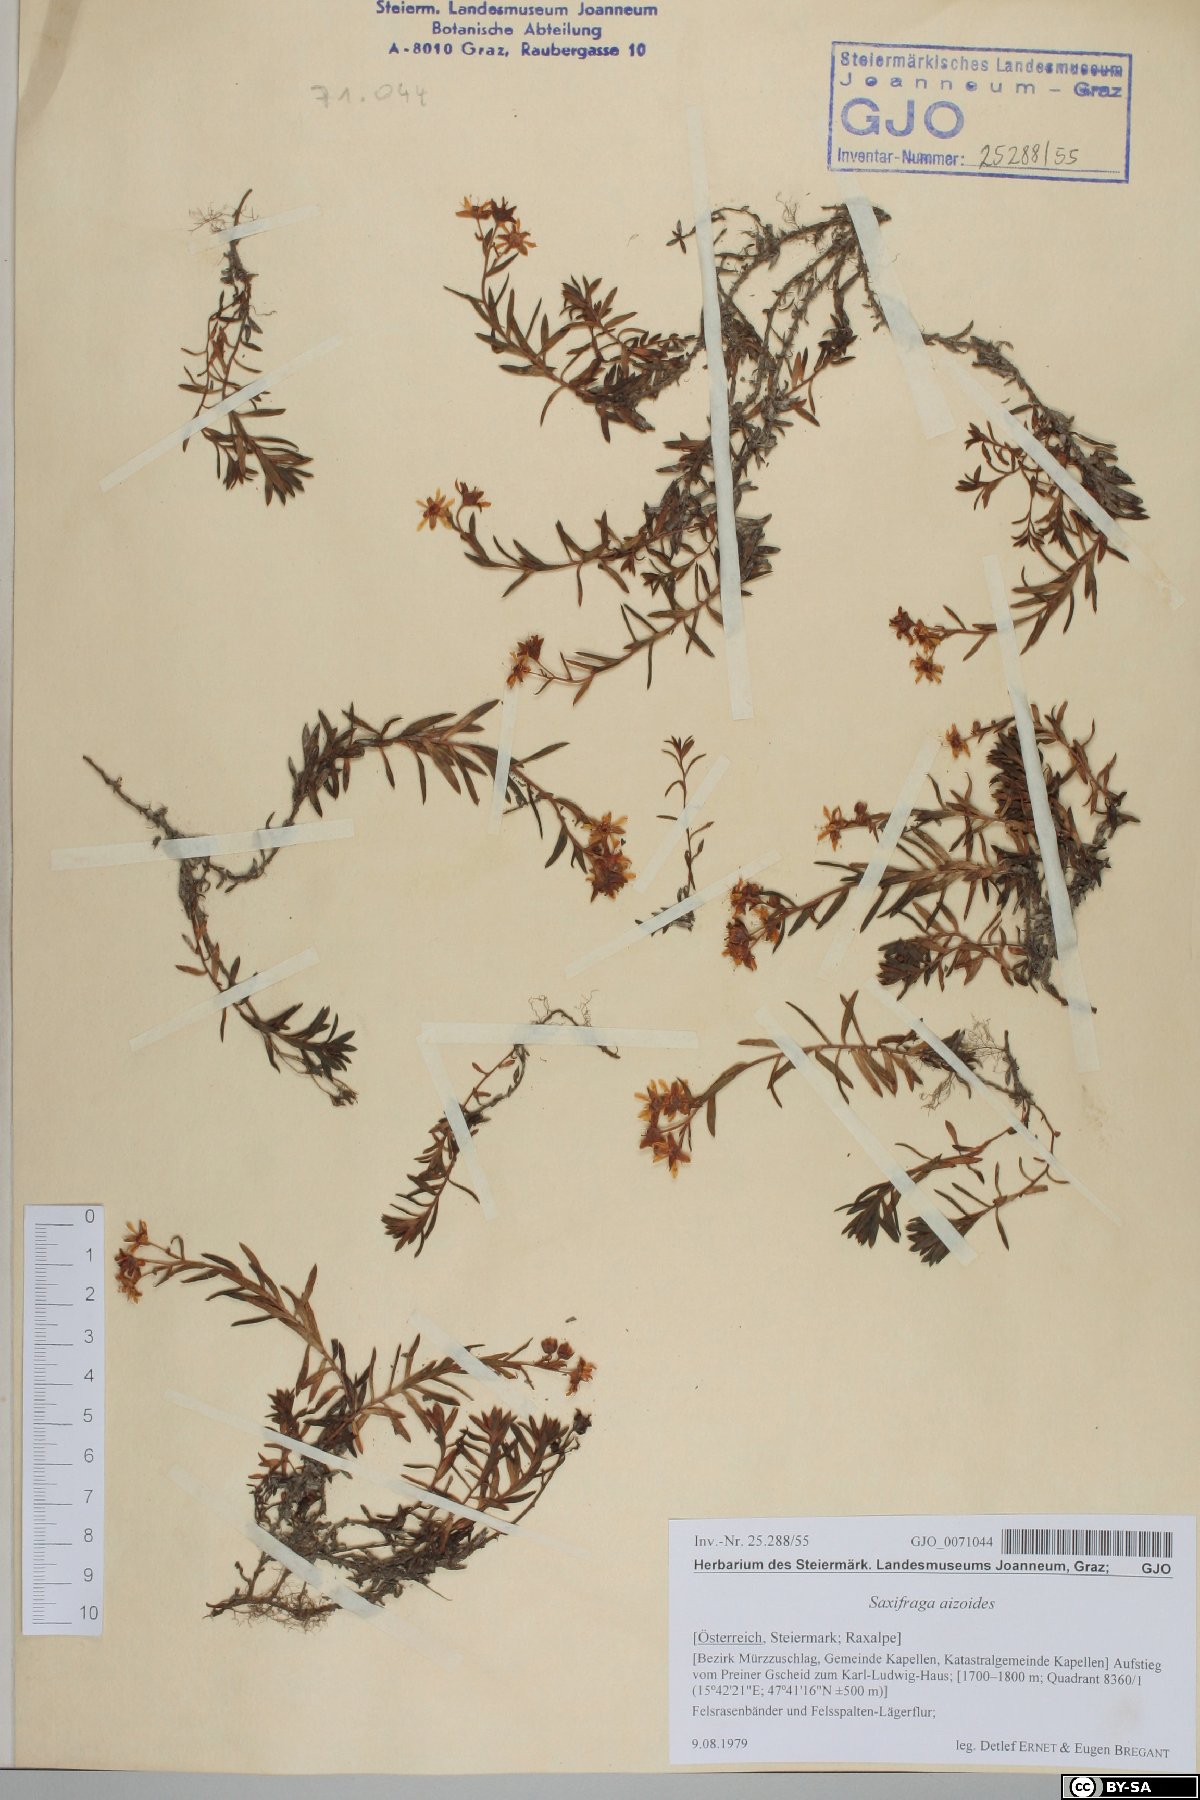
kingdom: Plantae
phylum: Tracheophyta
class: Magnoliopsida
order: Saxifragales
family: Saxifragaceae
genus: Saxifraga
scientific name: Saxifraga aizoides
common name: Yellow mountain saxifrage
